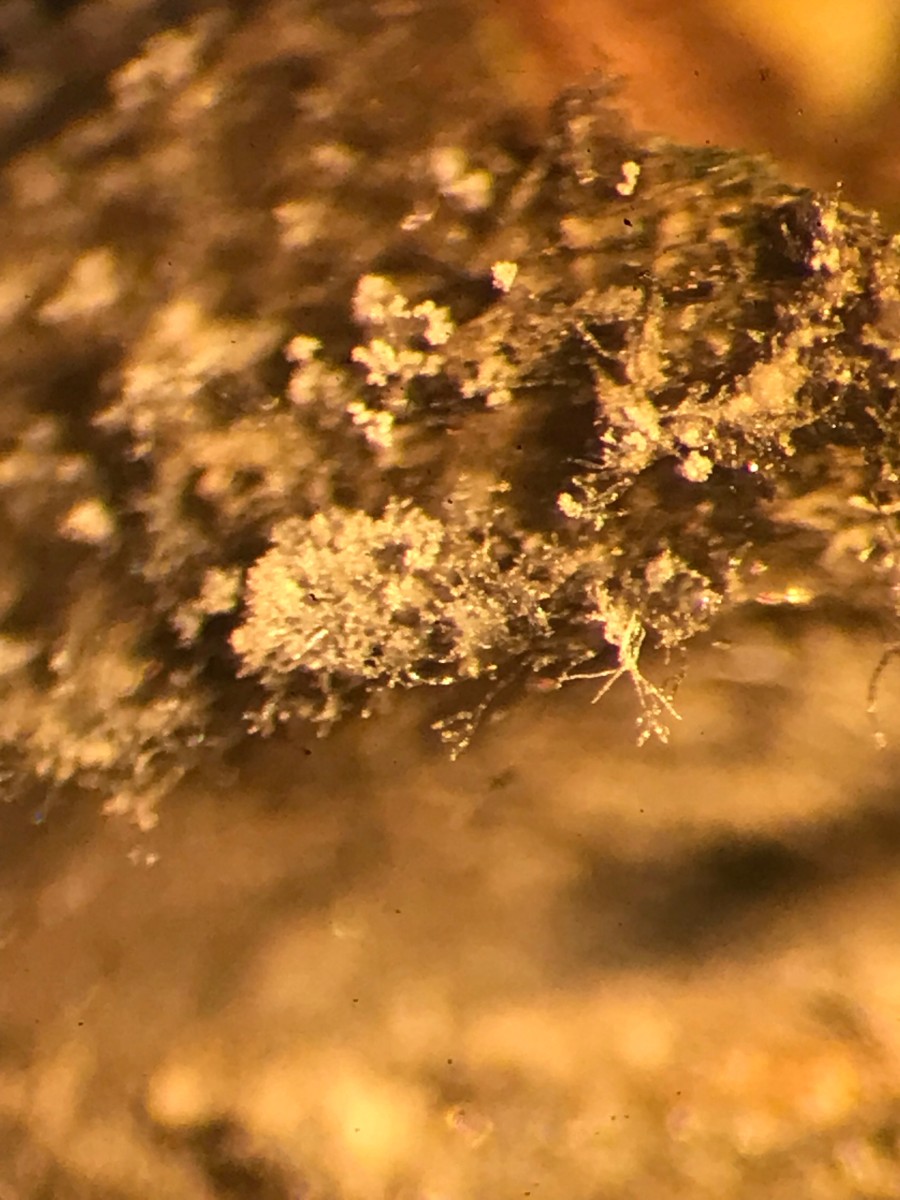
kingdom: Fungi
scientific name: Fungi
